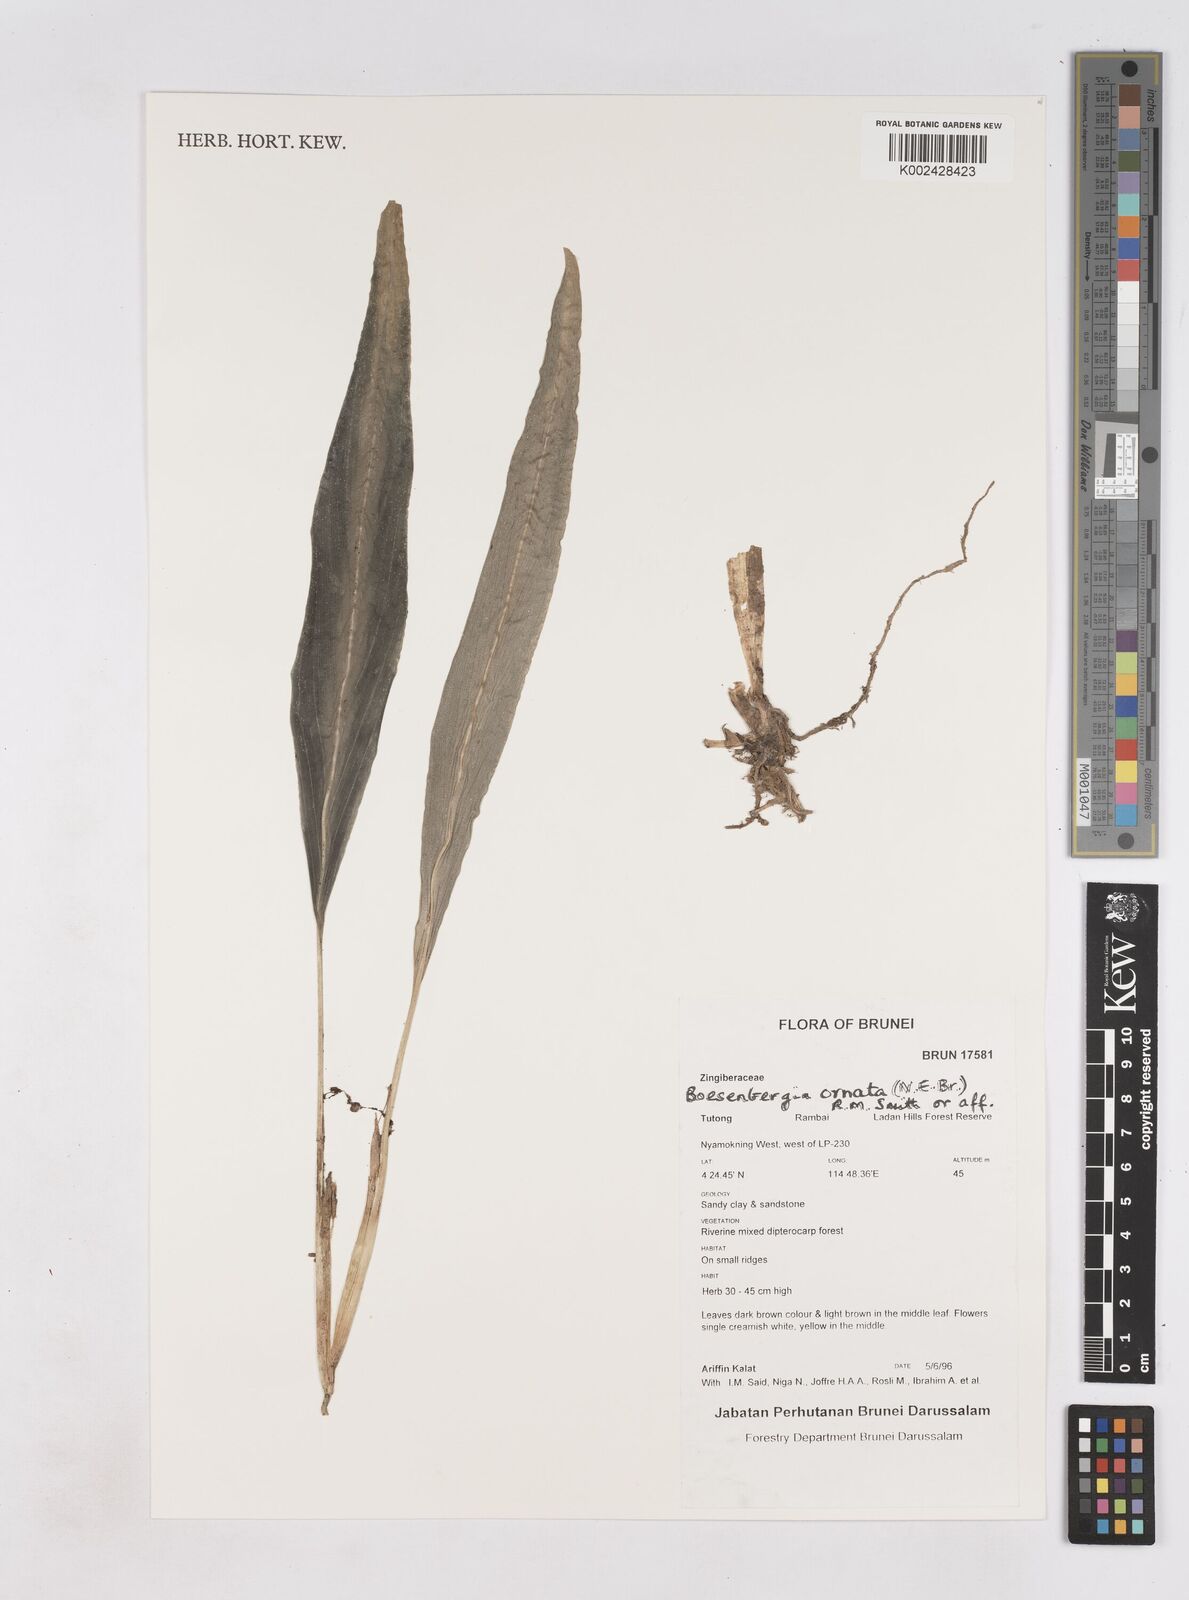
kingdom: Plantae
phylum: Tracheophyta
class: Liliopsida
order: Zingiberales
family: Zingiberaceae
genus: Boesenbergia
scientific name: Boesenbergia ornata
